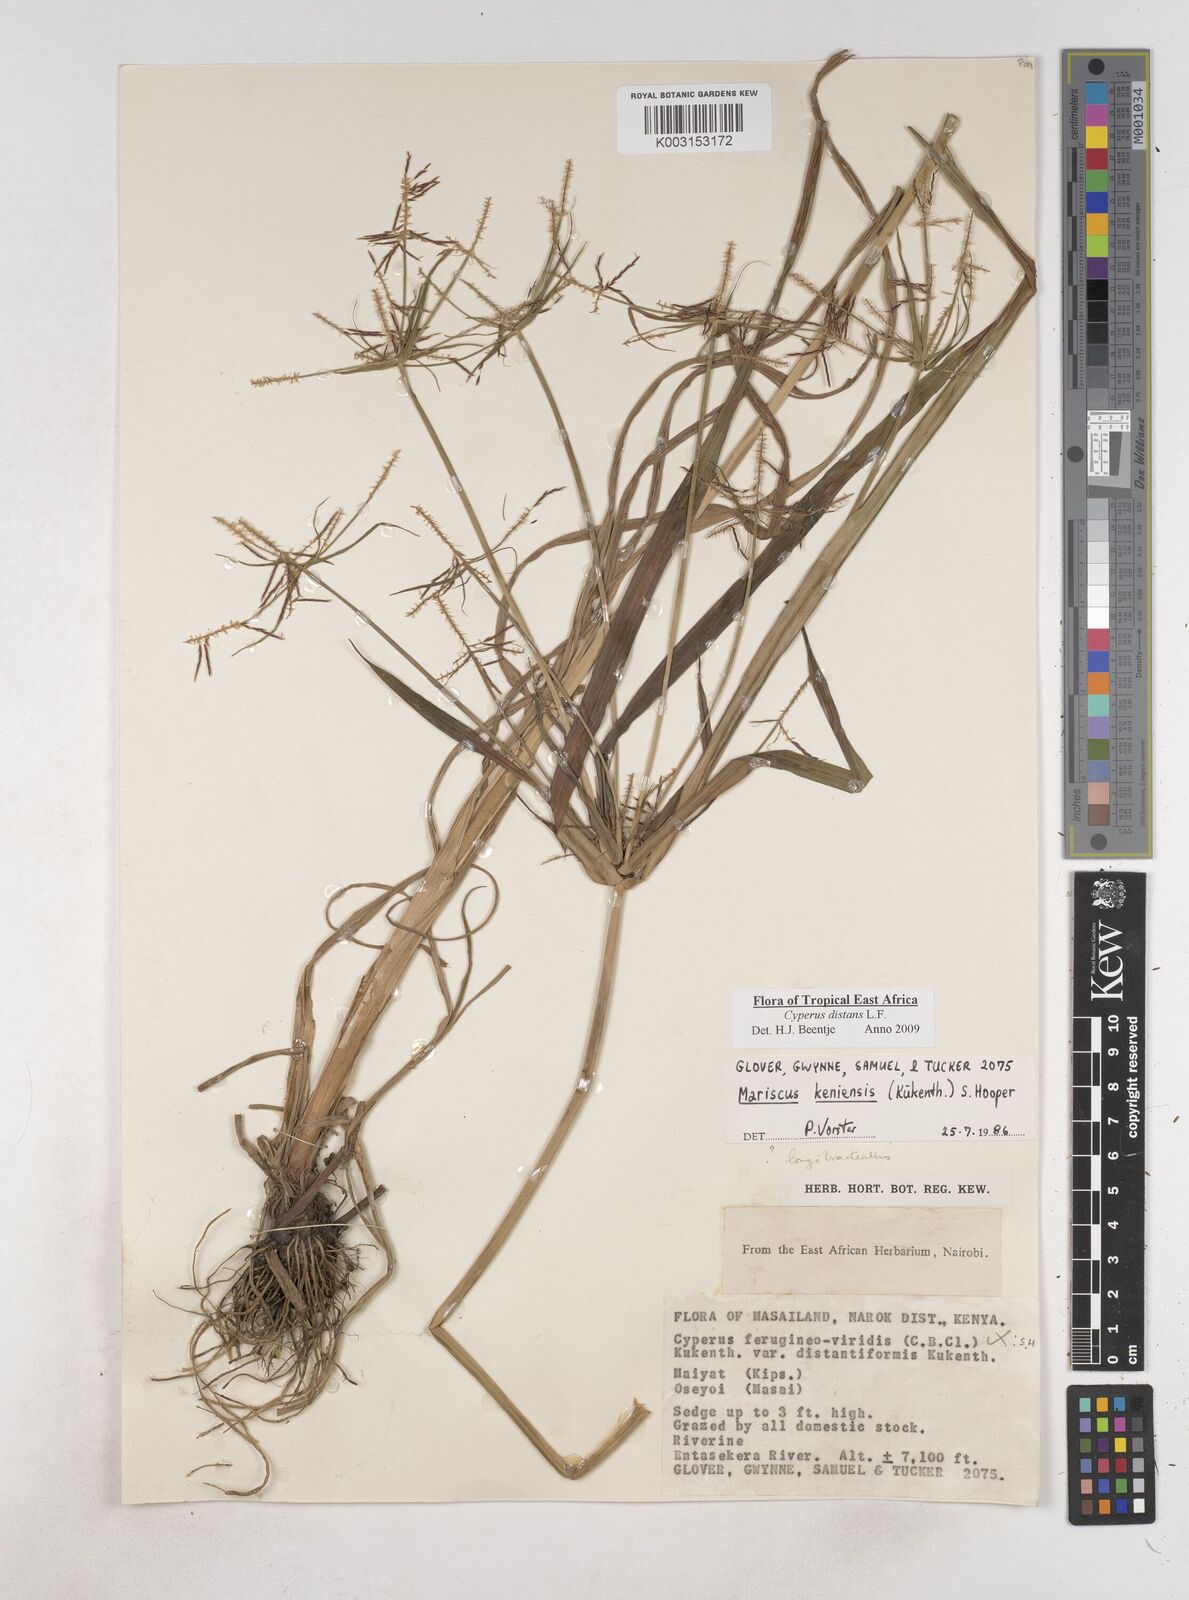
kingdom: Plantae
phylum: Tracheophyta
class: Liliopsida
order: Poales
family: Cyperaceae
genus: Cyperus
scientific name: Cyperus distans
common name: Slender cyperus
